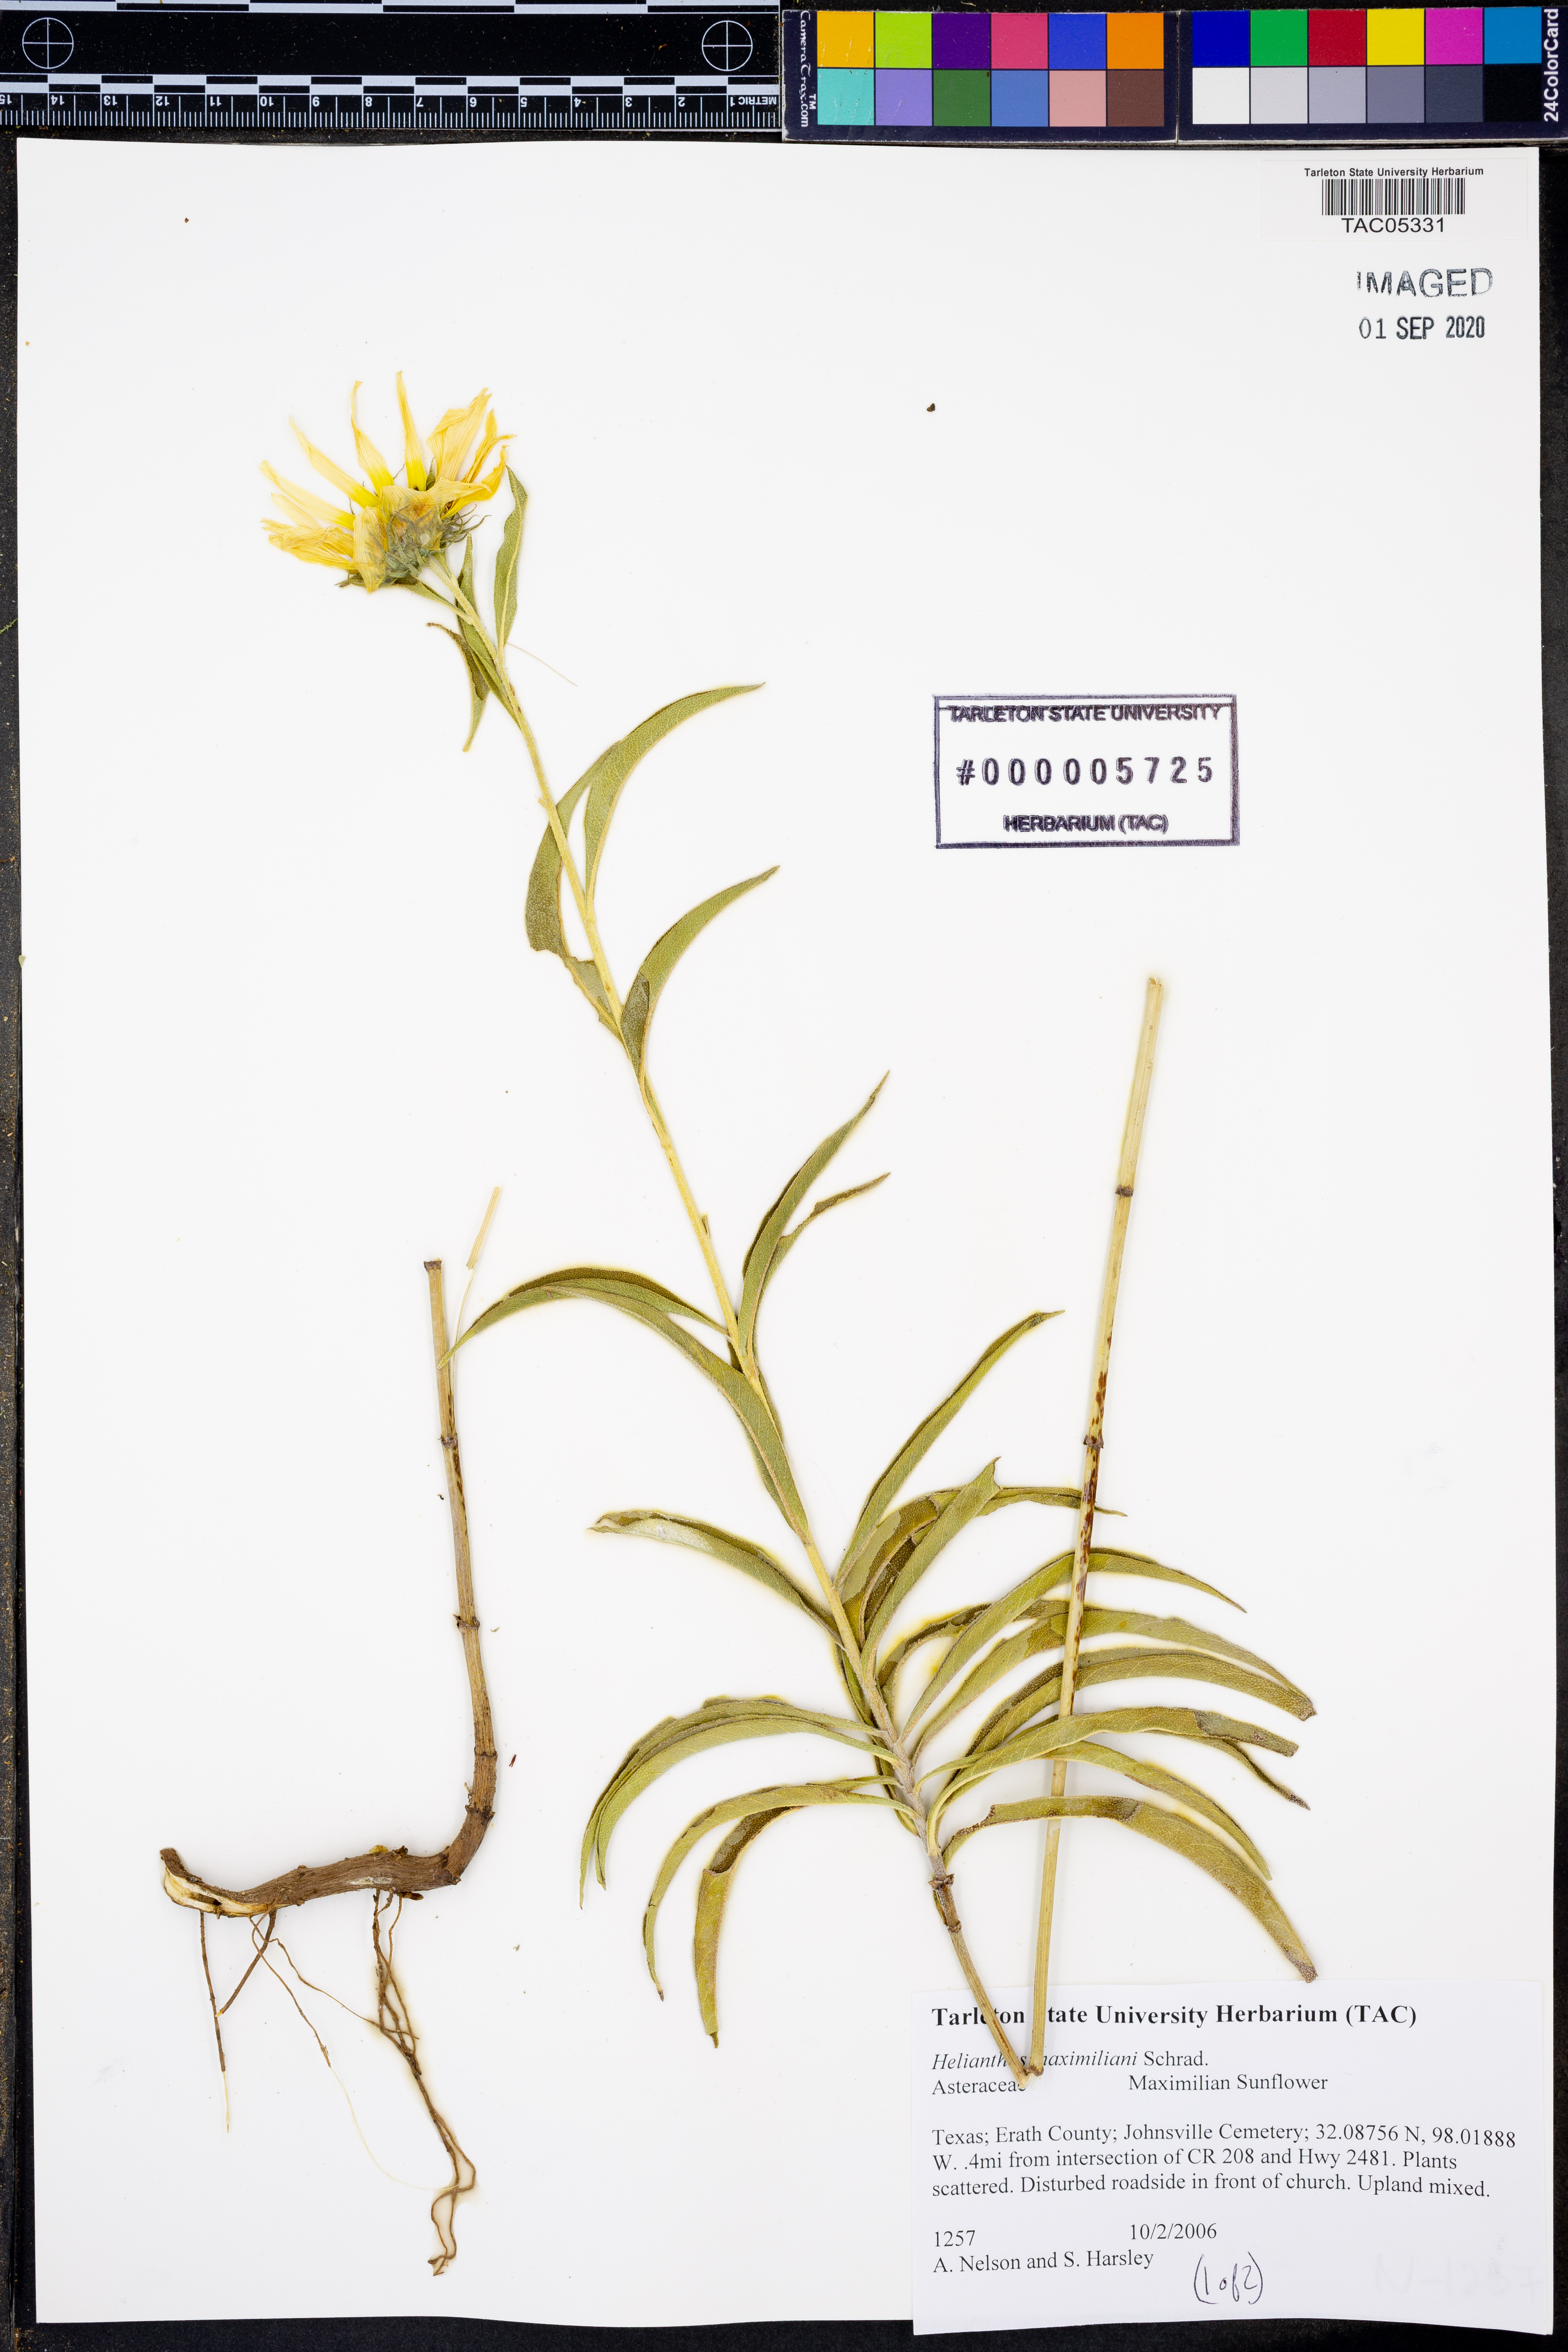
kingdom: Plantae
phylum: Tracheophyta
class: Magnoliopsida
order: Asterales
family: Asteraceae
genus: Helianthus
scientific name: Helianthus maximiliani
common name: Maximilian's sunflower
